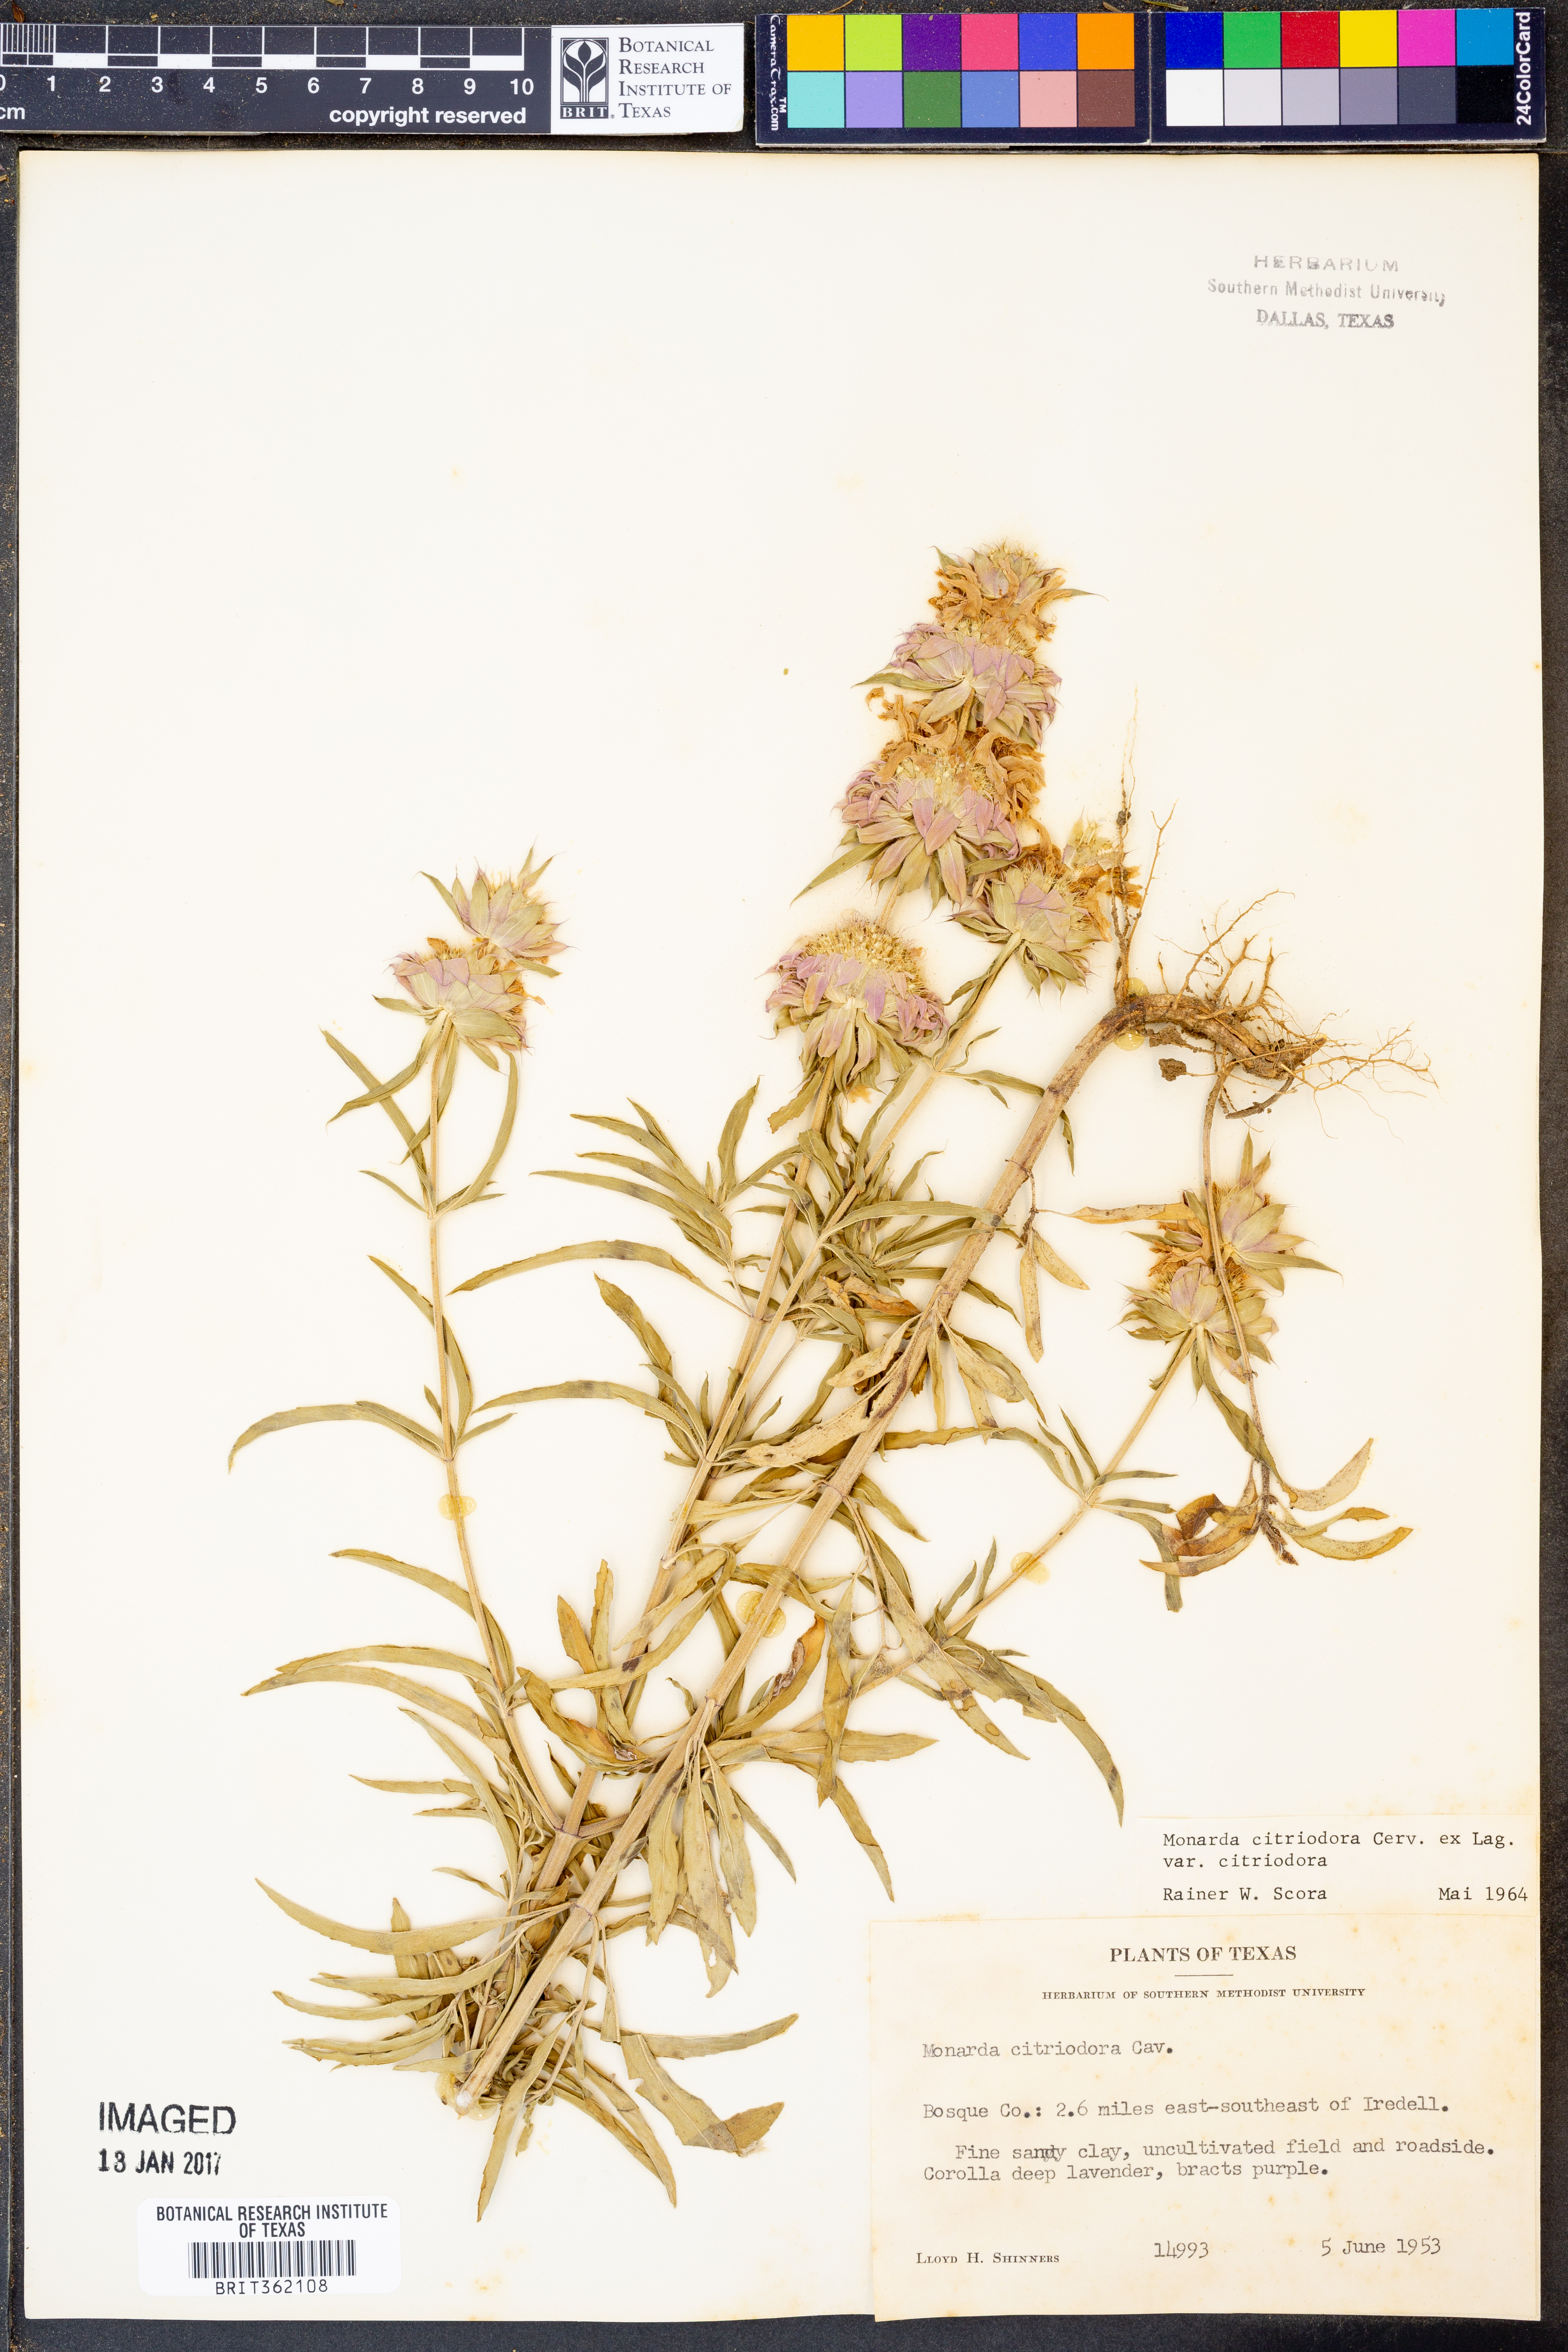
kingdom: Plantae
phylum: Tracheophyta
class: Magnoliopsida
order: Lamiales
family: Lamiaceae
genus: Monarda
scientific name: Monarda citriodora
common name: Lemon beebalm
